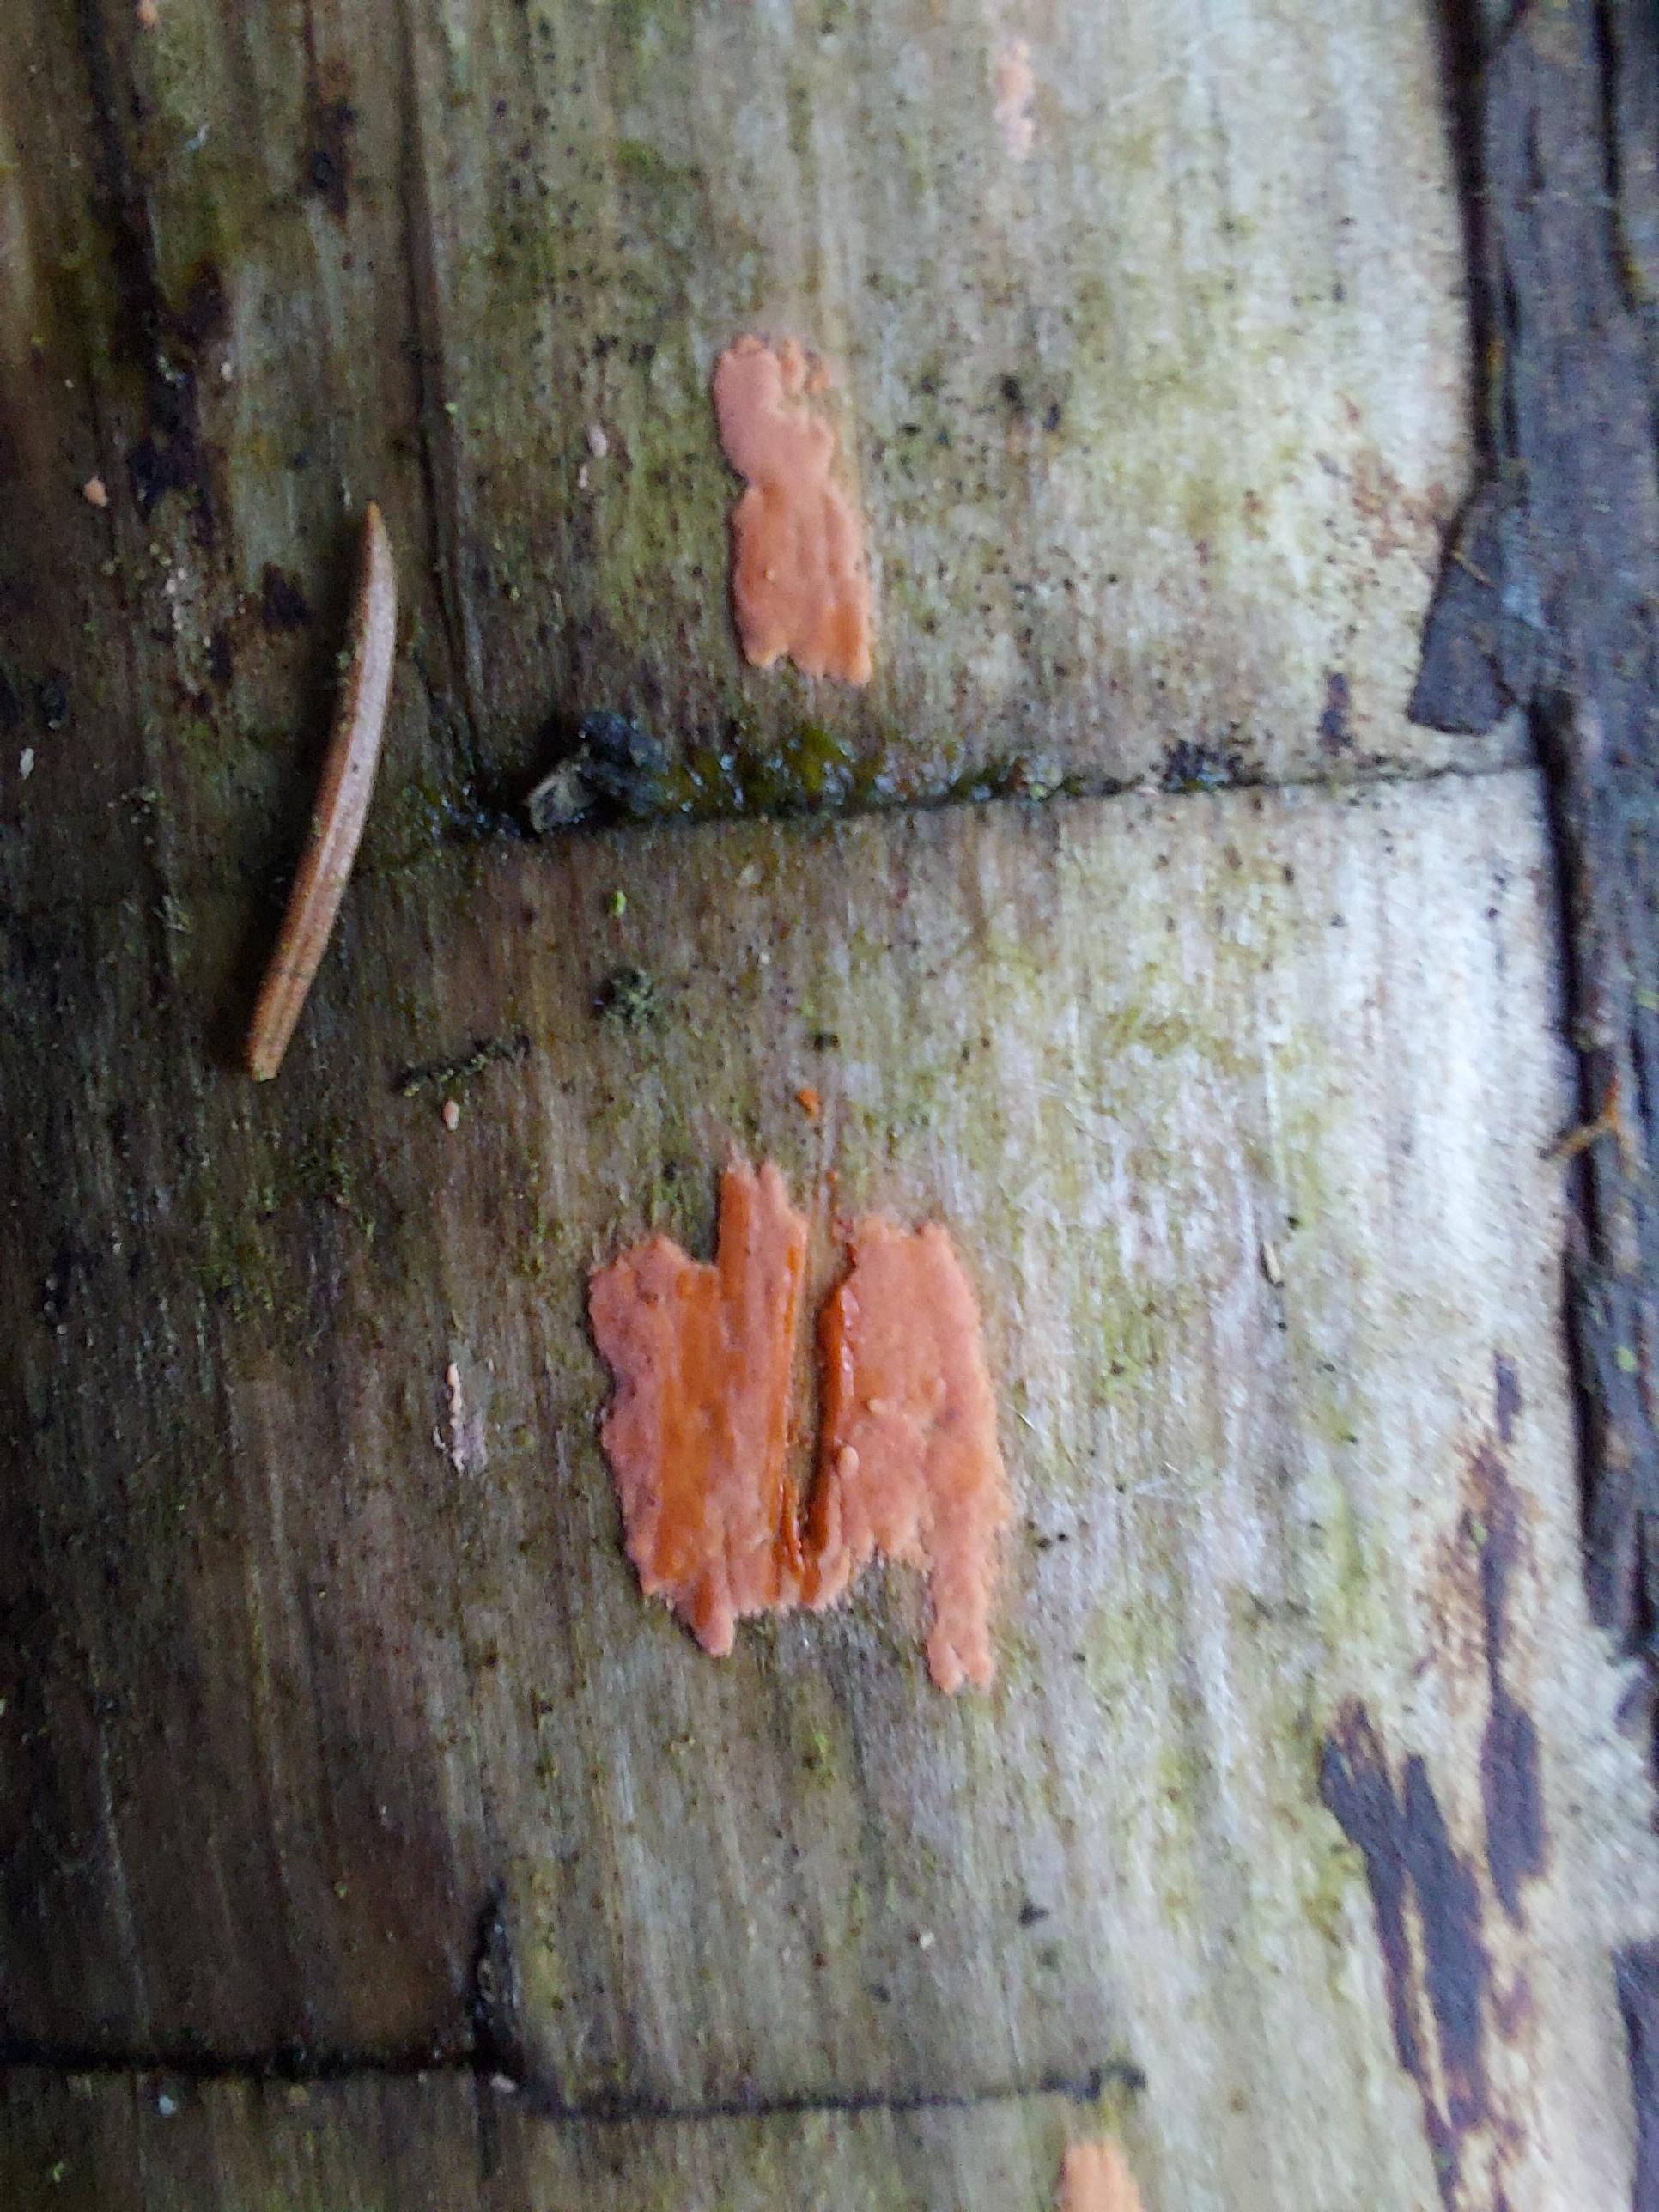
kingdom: Fungi
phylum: Basidiomycota
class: Agaricomycetes
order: Corticiales
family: Corticiaceae
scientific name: Corticiaceae
